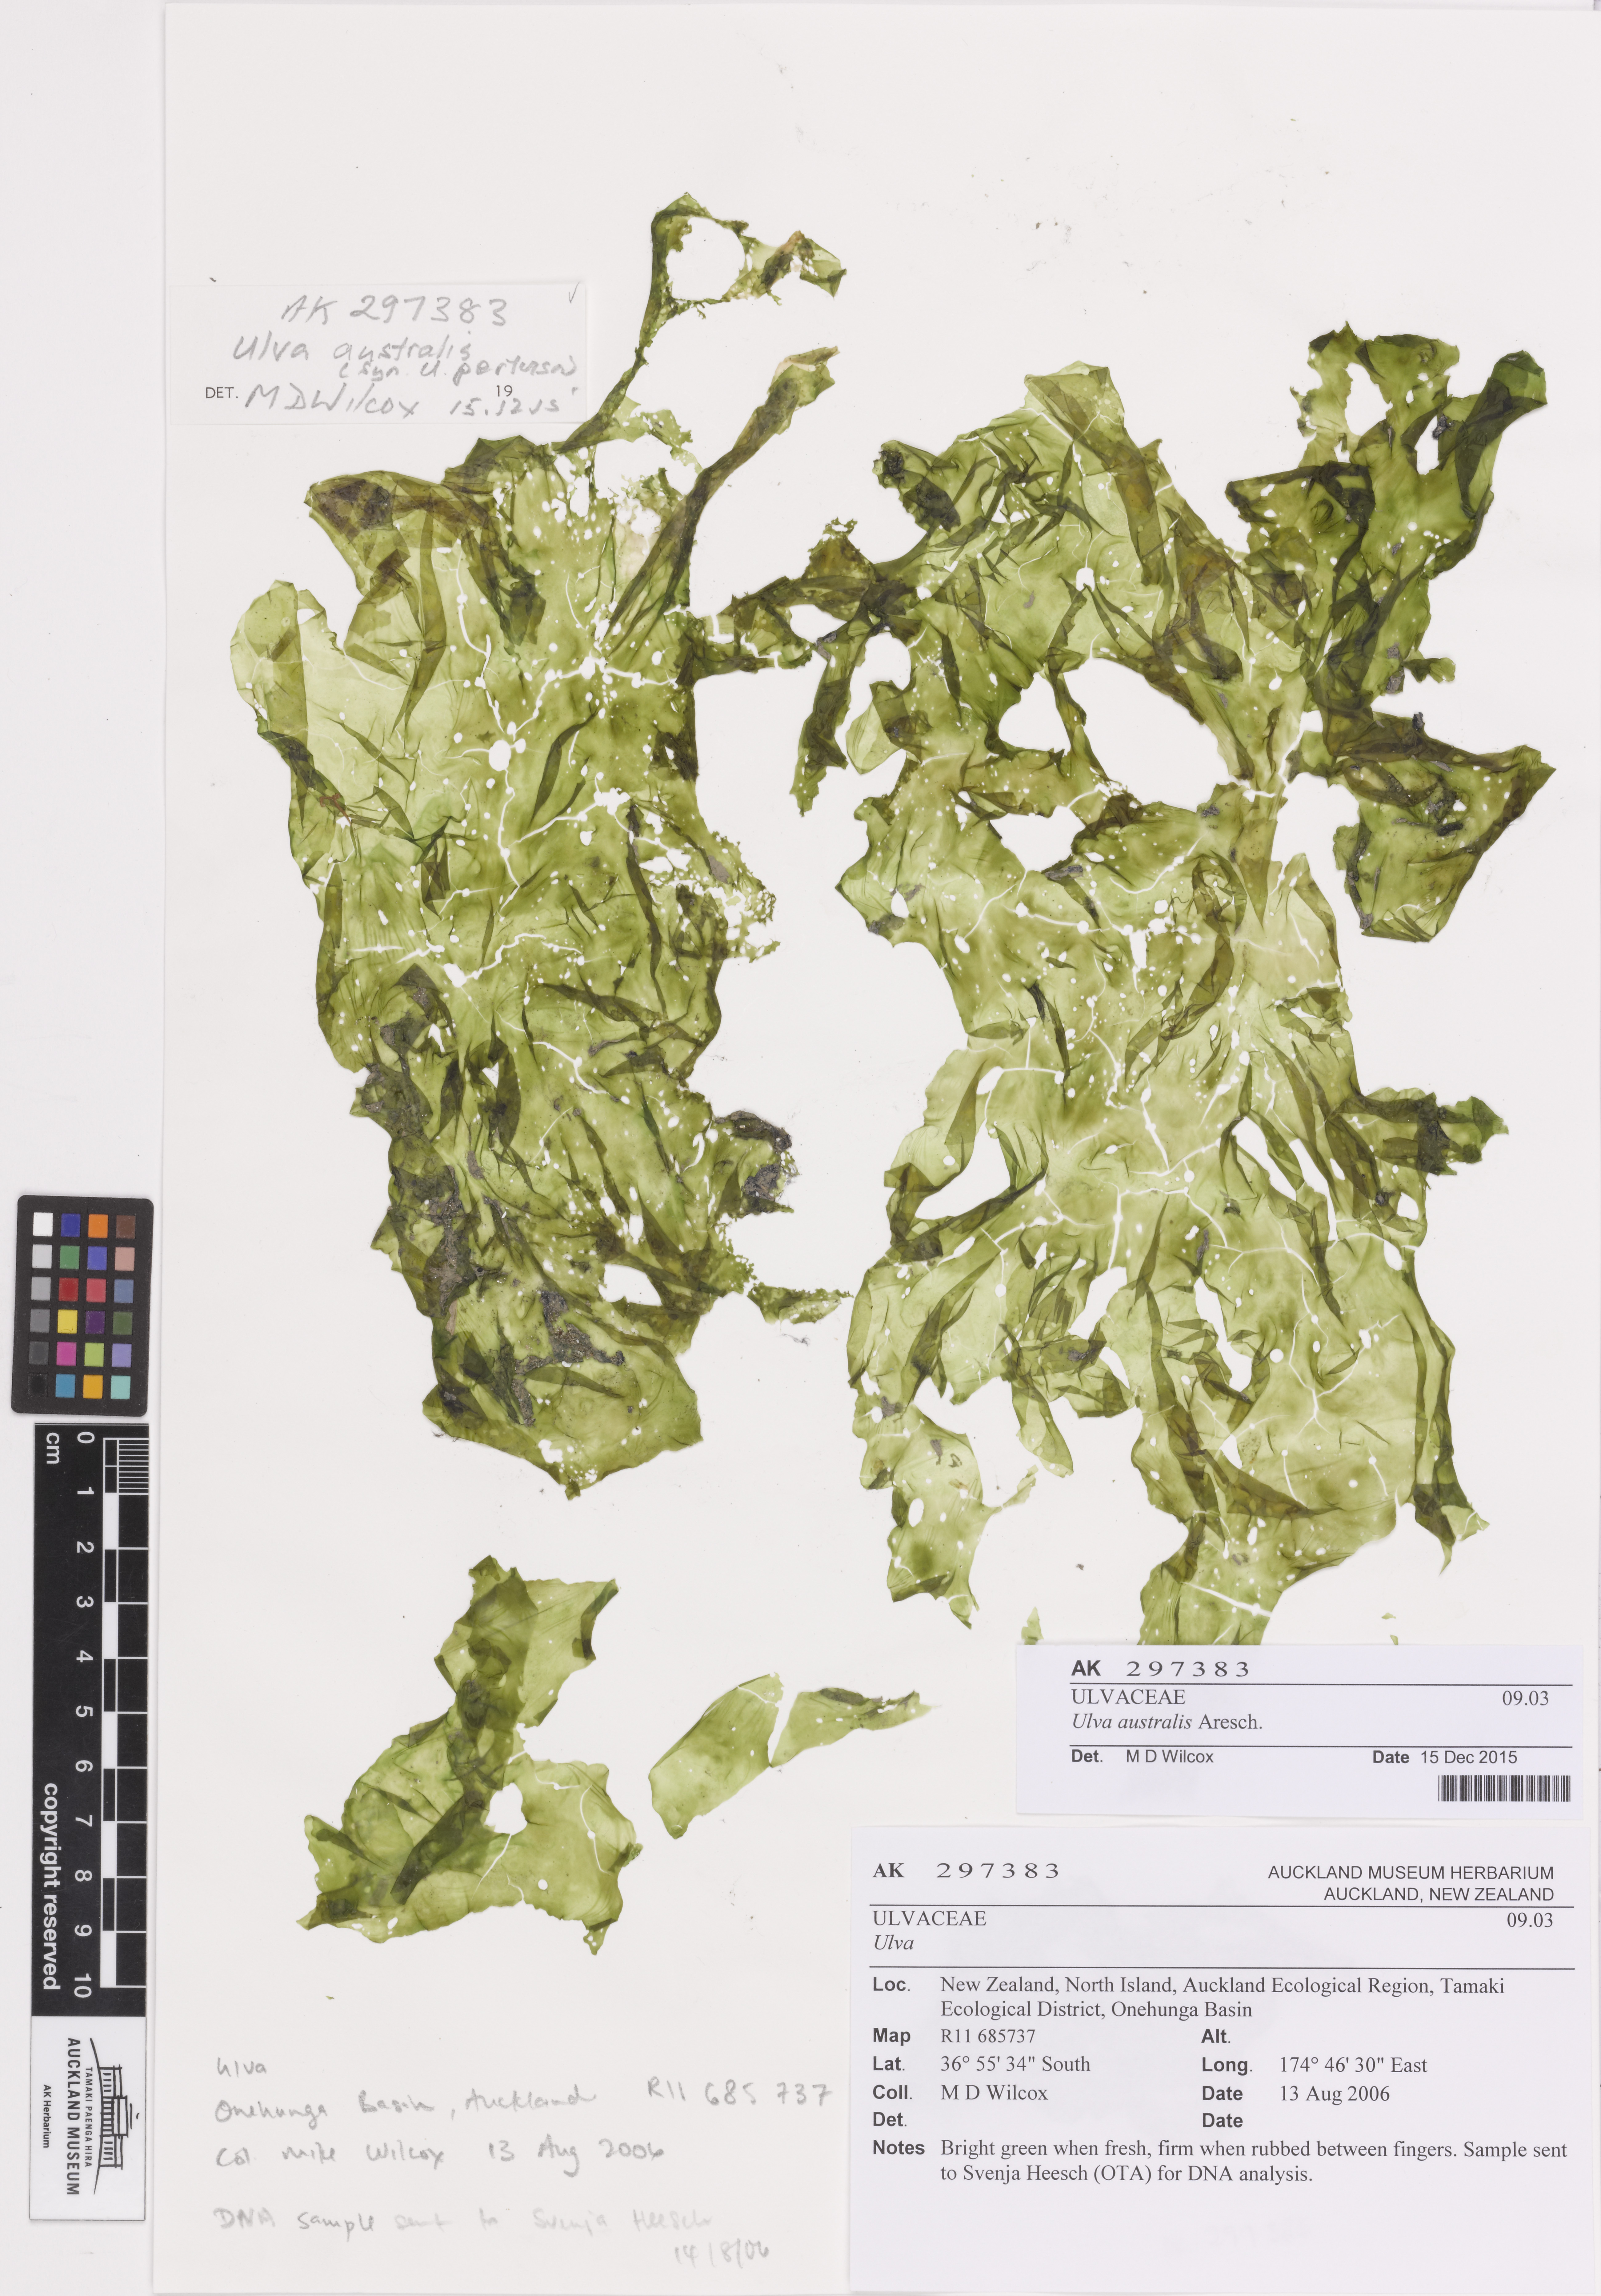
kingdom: Plantae
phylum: Chlorophyta
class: Ulvophyceae
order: Ulvales
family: Ulvaceae
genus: Ulva
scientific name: Ulva australis
